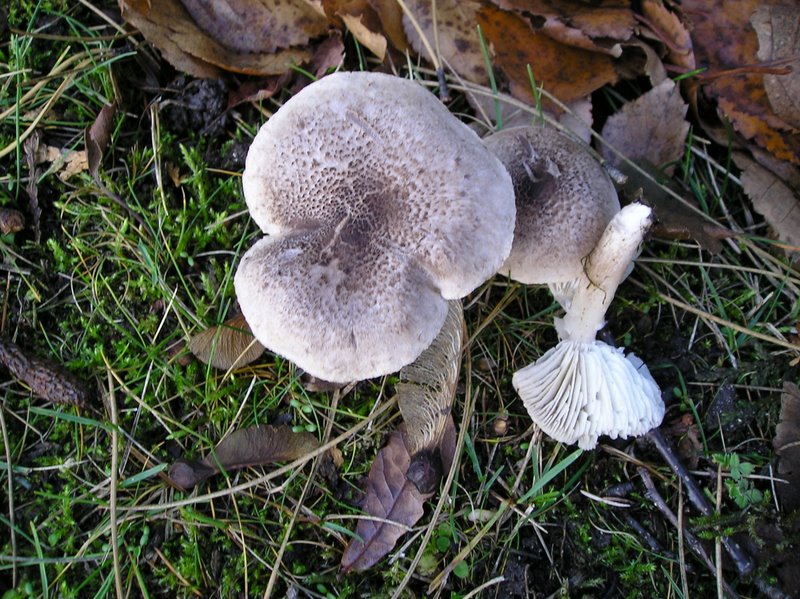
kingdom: Fungi
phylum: Basidiomycota
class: Agaricomycetes
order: Agaricales
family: Tricholomataceae
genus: Tricholoma
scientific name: Tricholoma scalpturatum
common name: gulplettet ridderhat
